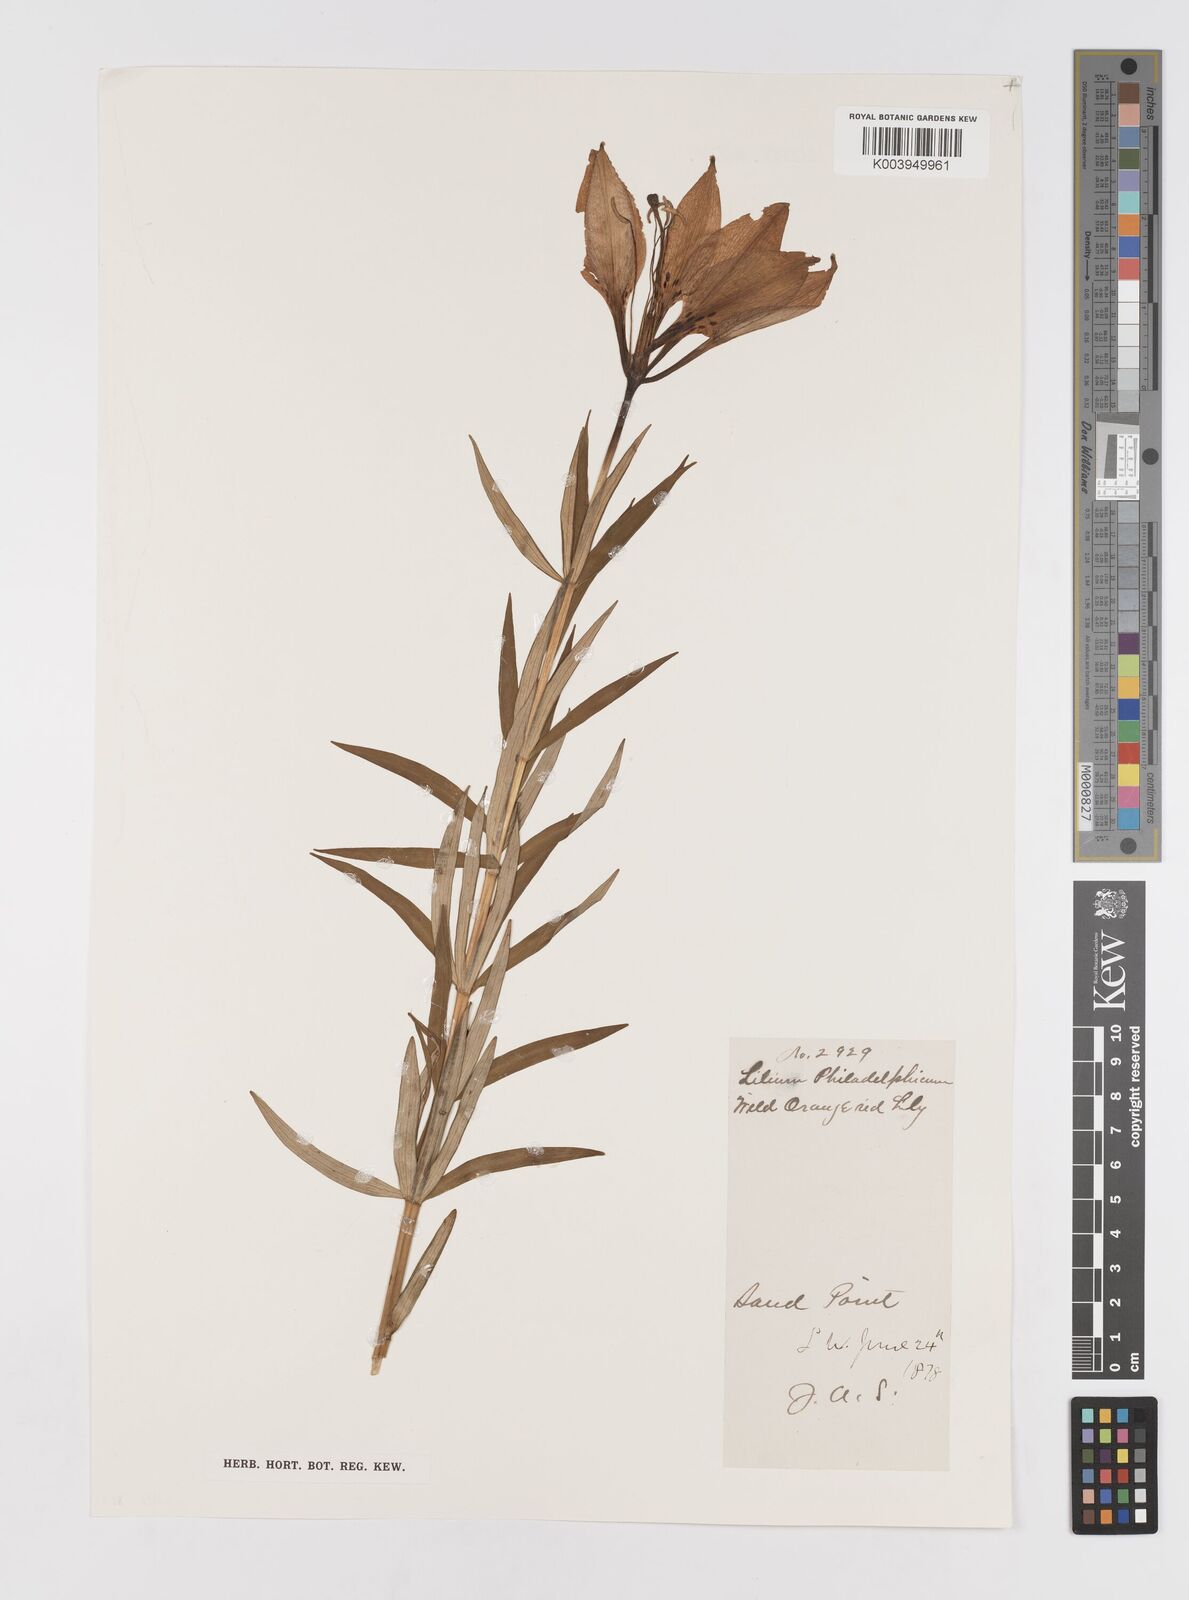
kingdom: Plantae
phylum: Tracheophyta
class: Liliopsida
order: Liliales
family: Liliaceae
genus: Lilium
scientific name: Lilium philadelphicum
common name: Red lily
